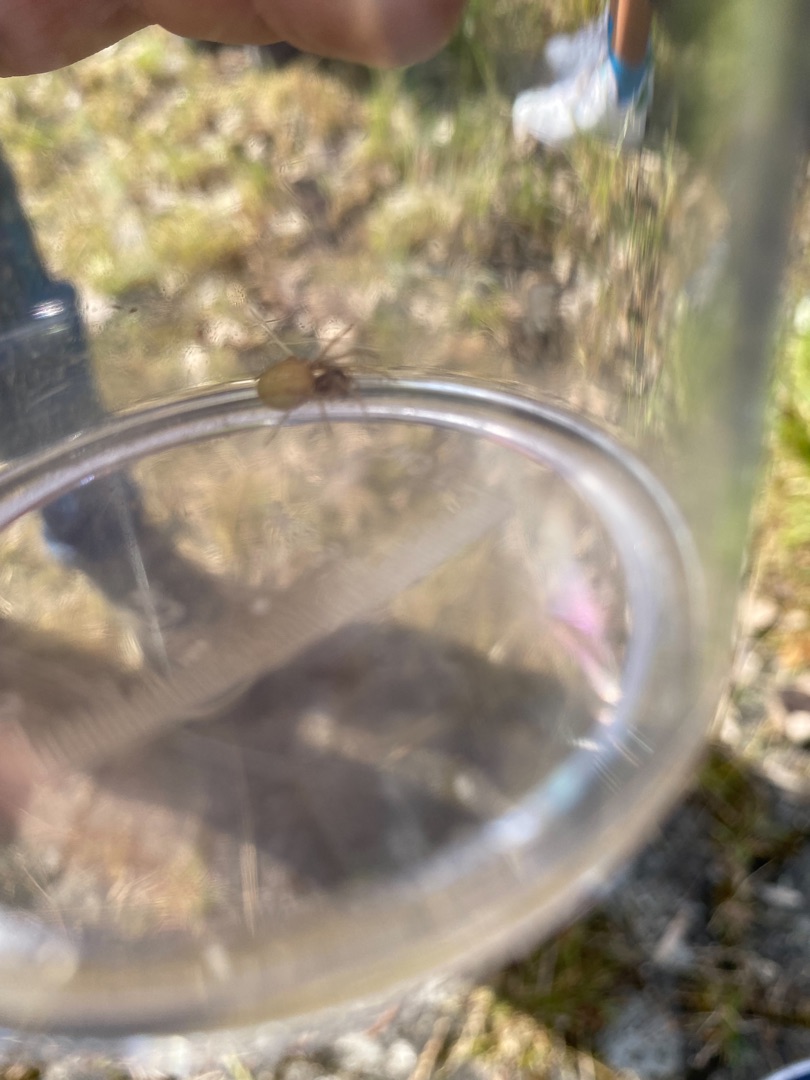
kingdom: Animalia
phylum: Arthropoda
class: Arachnida
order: Araneae
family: Tetragnathidae
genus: Pachygnatha
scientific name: Pachygnatha clercki
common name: Søtykkæbe
